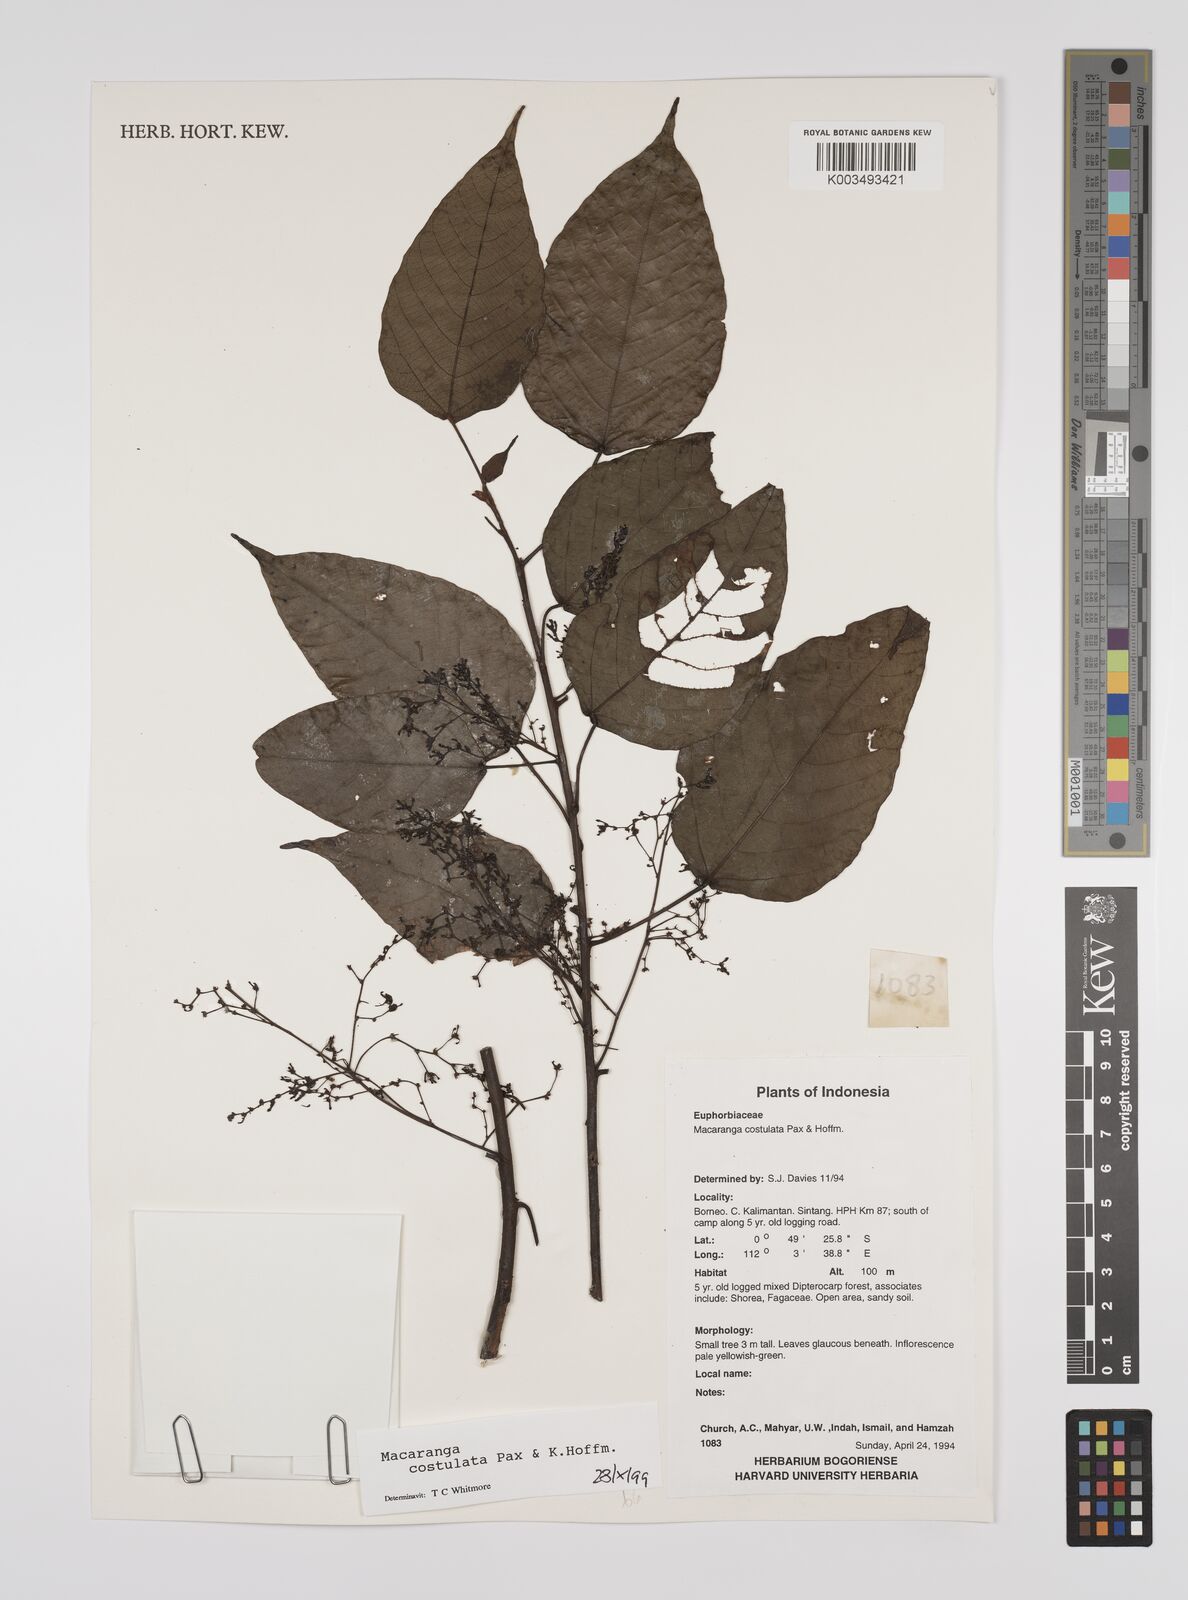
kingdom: Plantae
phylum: Tracheophyta
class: Magnoliopsida
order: Malpighiales
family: Euphorbiaceae
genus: Macaranga
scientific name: Macaranga costulata
